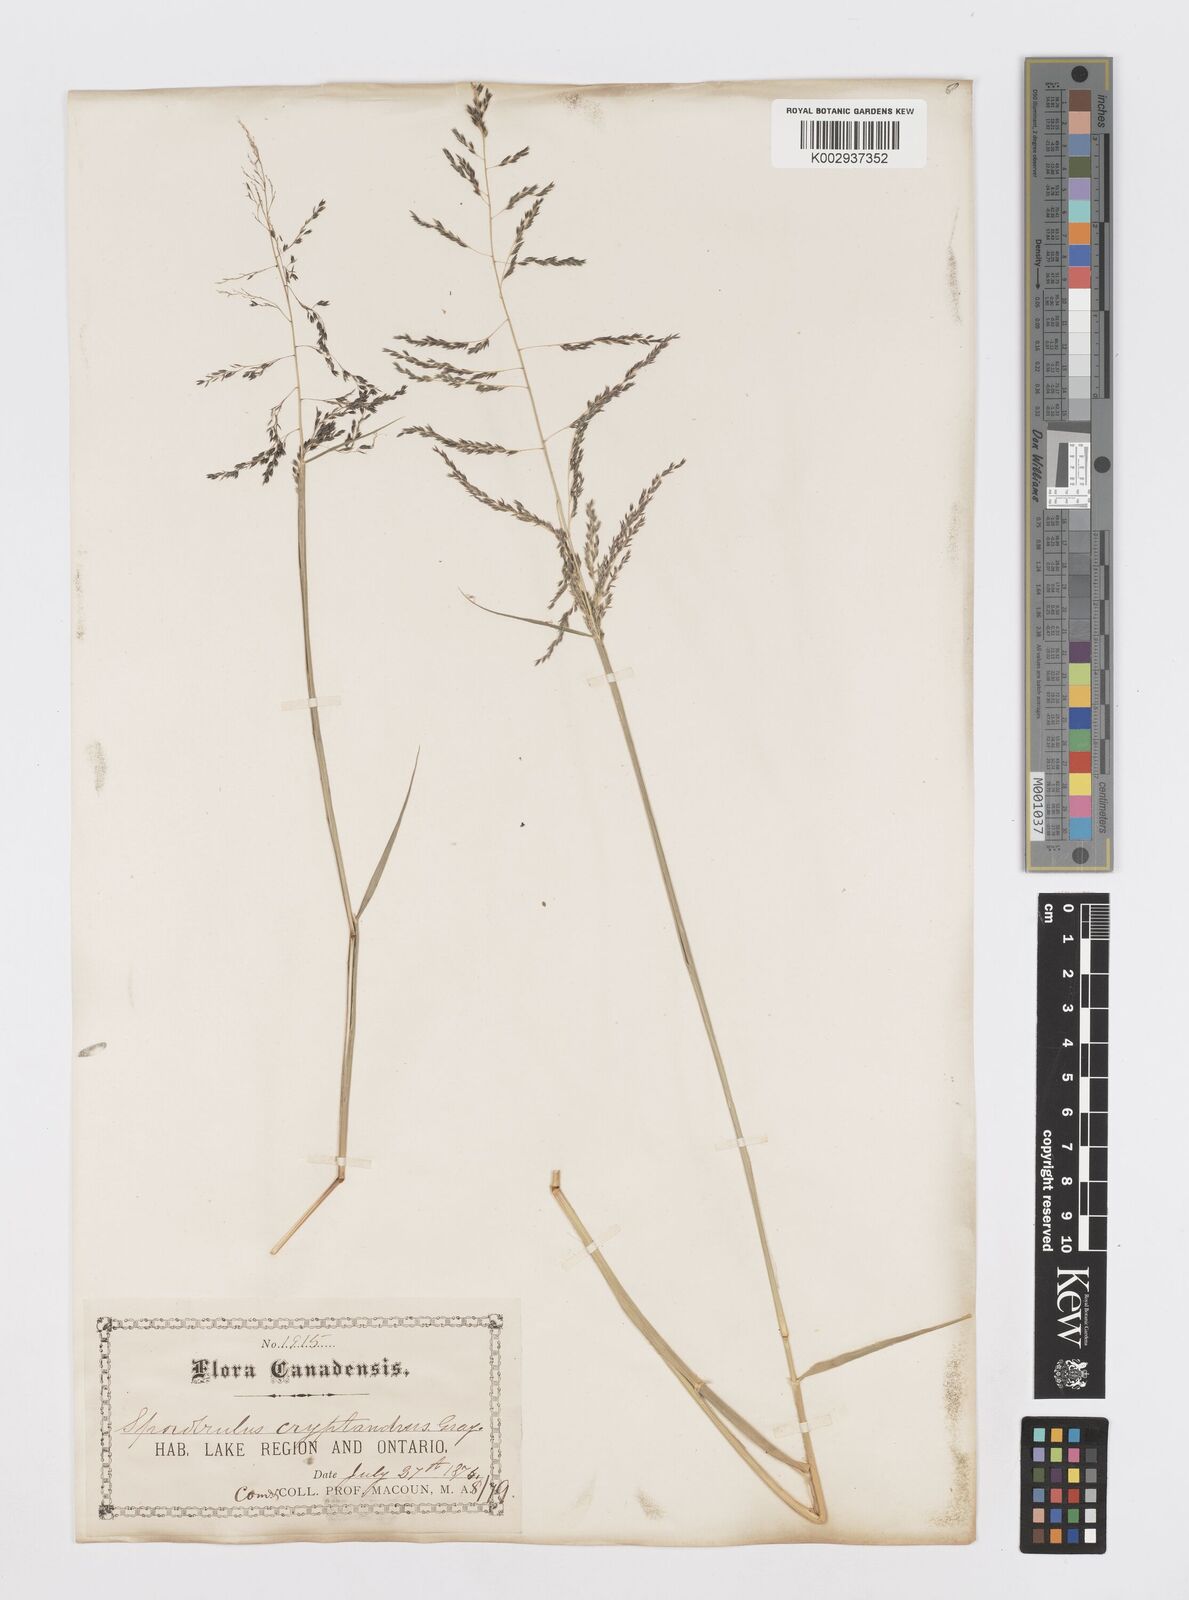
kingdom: Plantae
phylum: Tracheophyta
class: Liliopsida
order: Poales
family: Poaceae
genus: Sporobolus
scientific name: Sporobolus cryptandrus
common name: Sand dropseed
